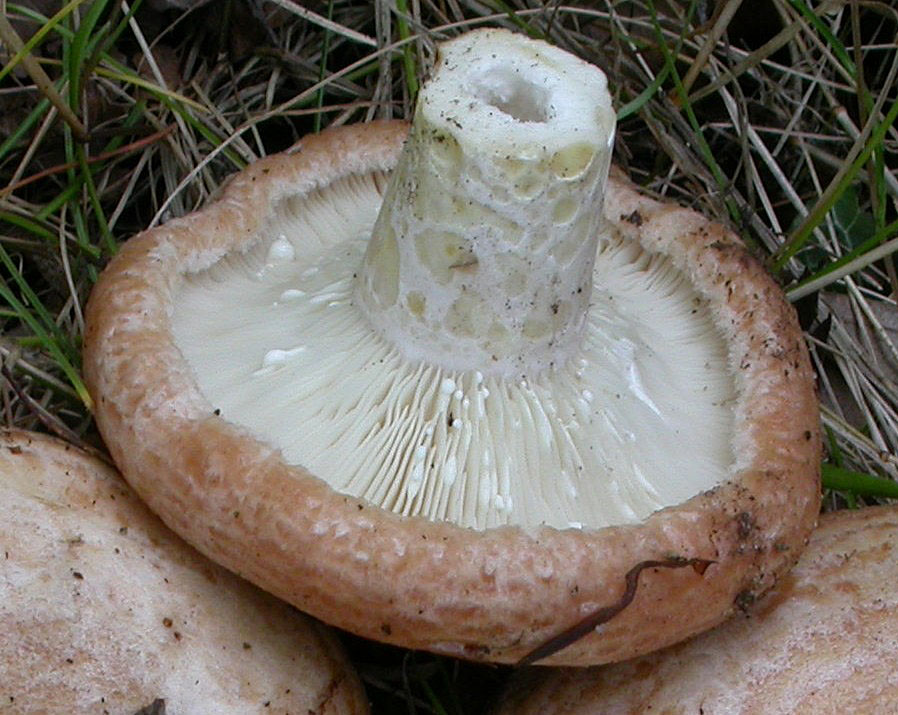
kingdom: Fungi
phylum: Basidiomycota
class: Agaricomycetes
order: Russulales
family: Russulaceae
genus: Lactarius
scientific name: Lactarius zonarius
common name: zoneret mælkehat
